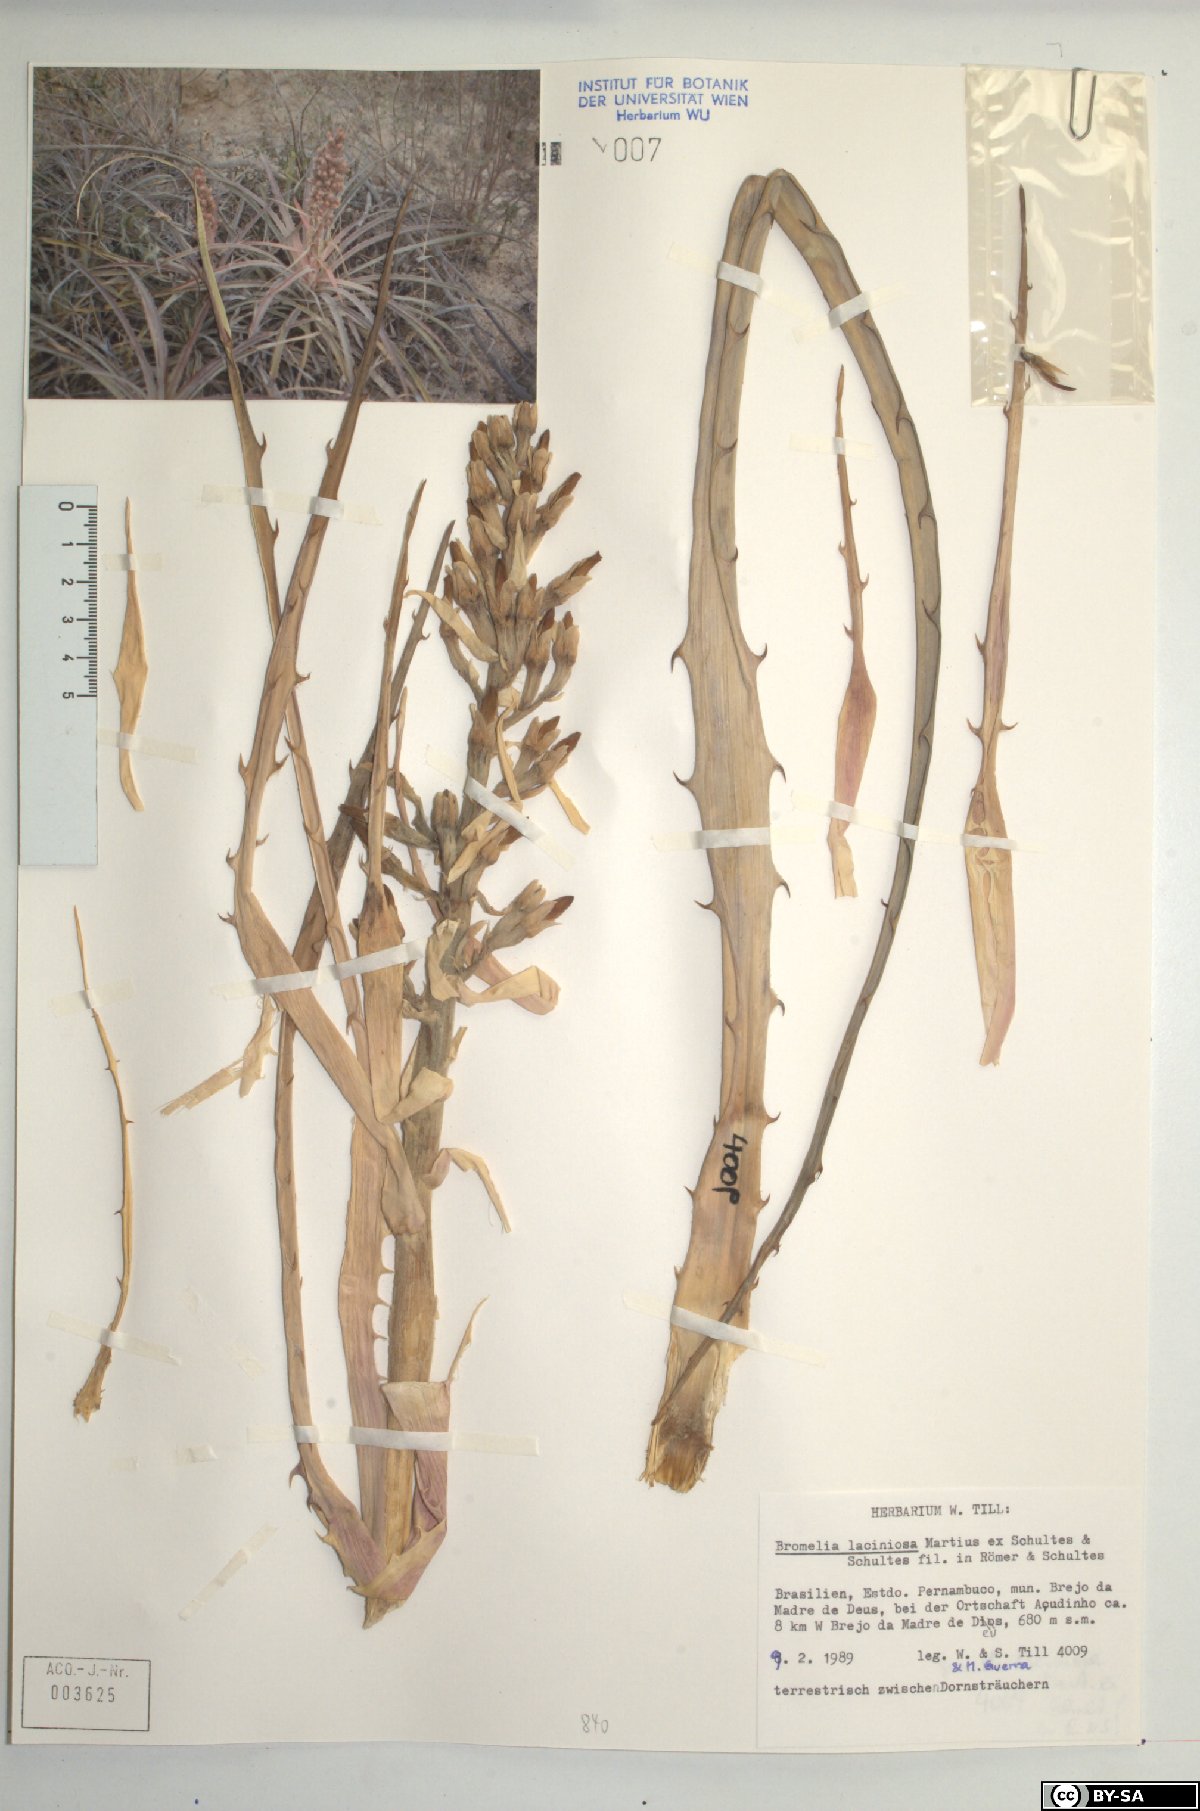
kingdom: Plantae
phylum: Tracheophyta
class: Liliopsida
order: Poales
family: Bromeliaceae
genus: Bromelia
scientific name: Bromelia laciniosa
